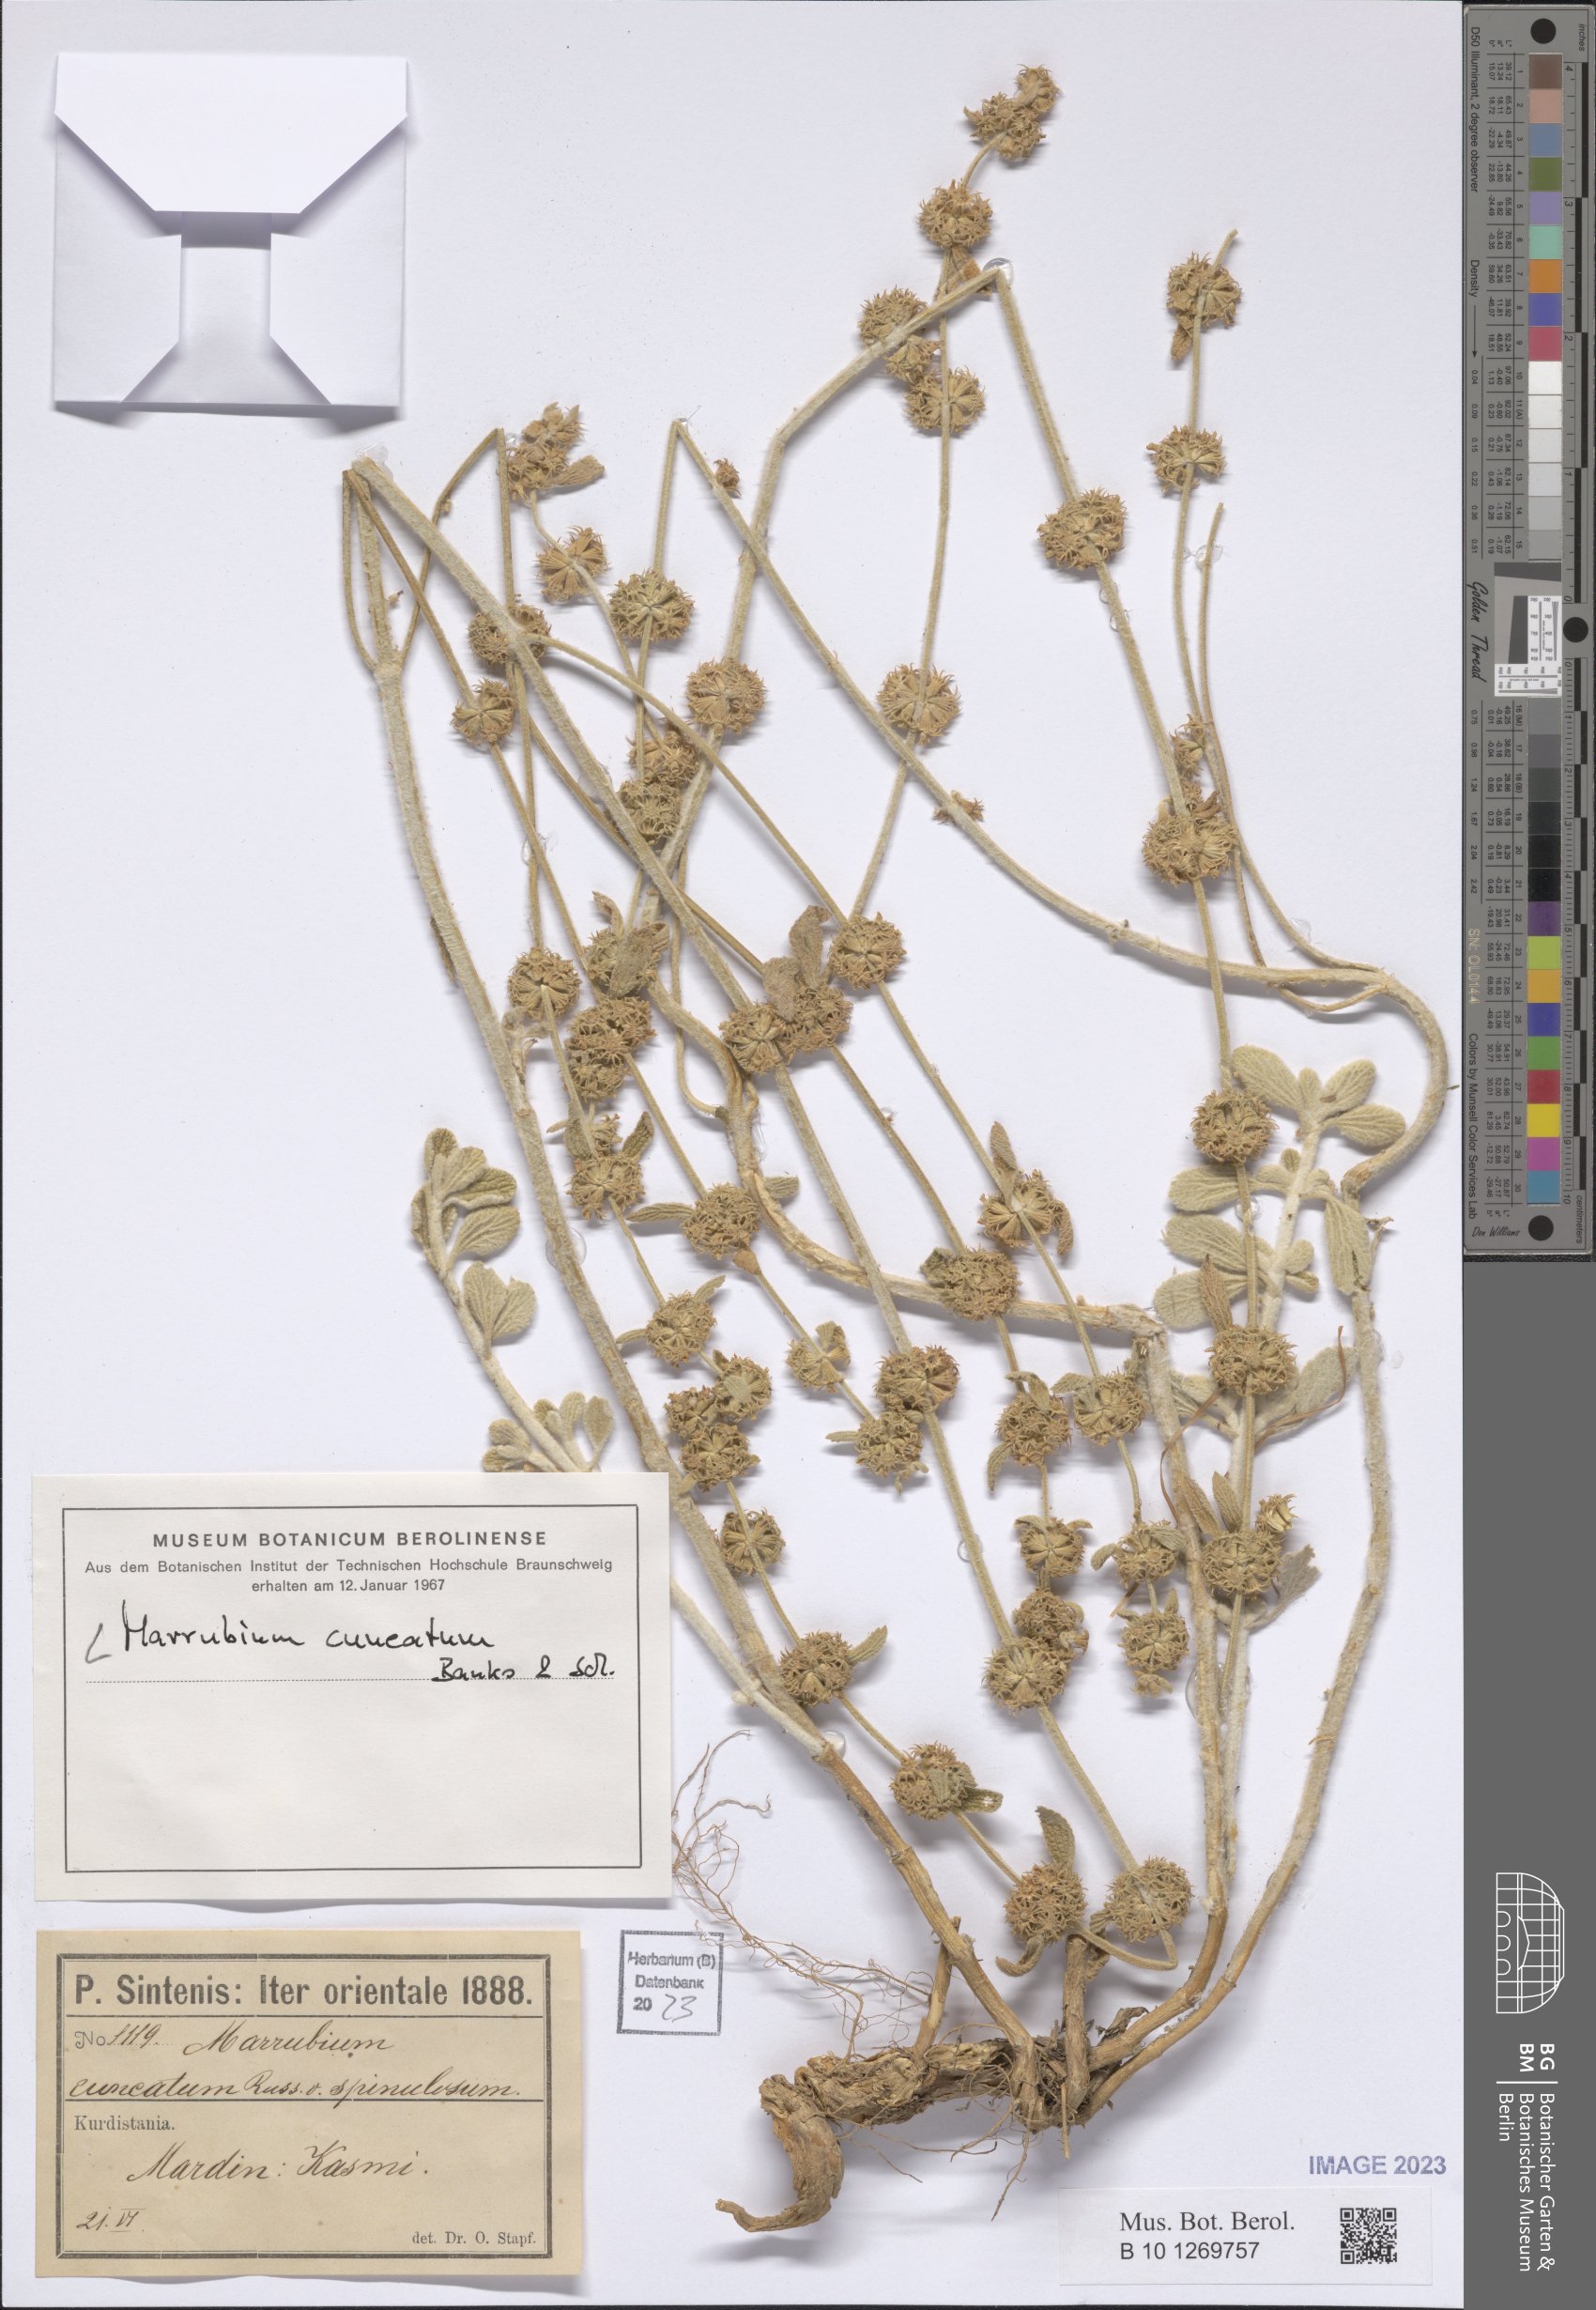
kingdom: Plantae
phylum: Tracheophyta
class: Magnoliopsida
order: Lamiales
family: Lamiaceae
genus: Marrubium
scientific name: Marrubium cuneatum
